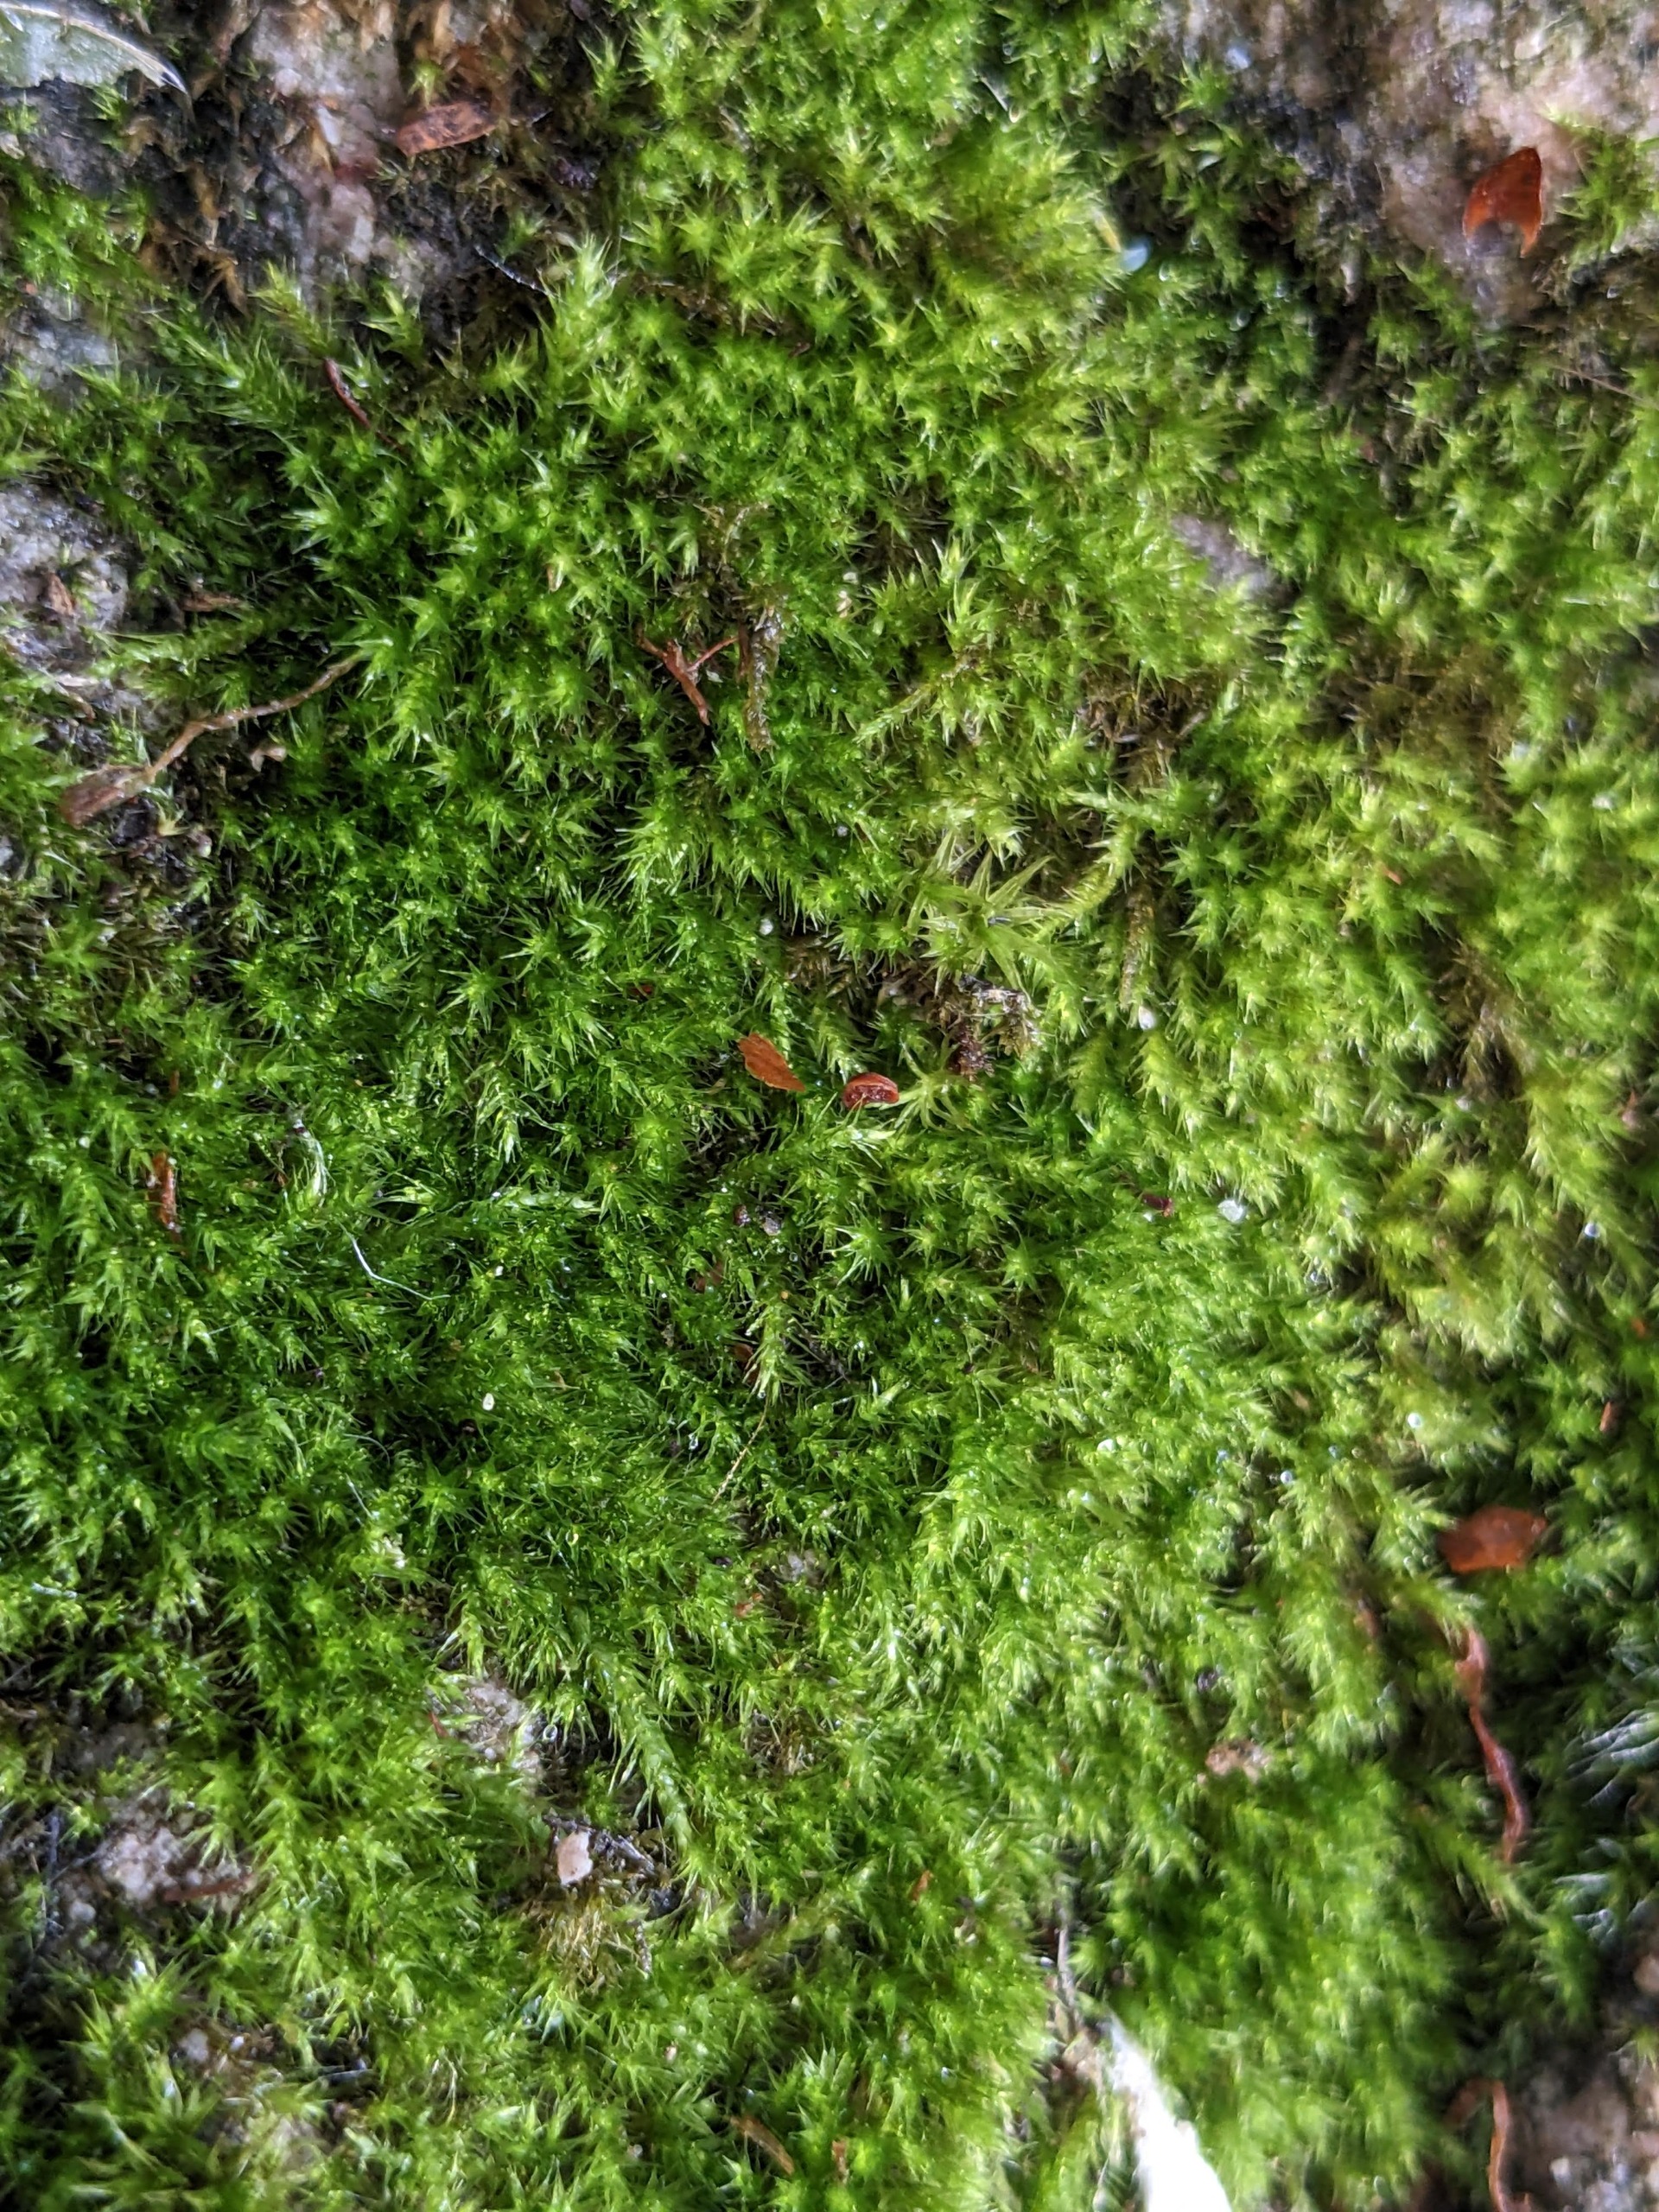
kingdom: Plantae
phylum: Bryophyta
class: Bryopsida
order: Hypnales
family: Brachytheciaceae
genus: Sciuro-hypnum
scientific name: Sciuro-hypnum populeum
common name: Park-kortkapsel
